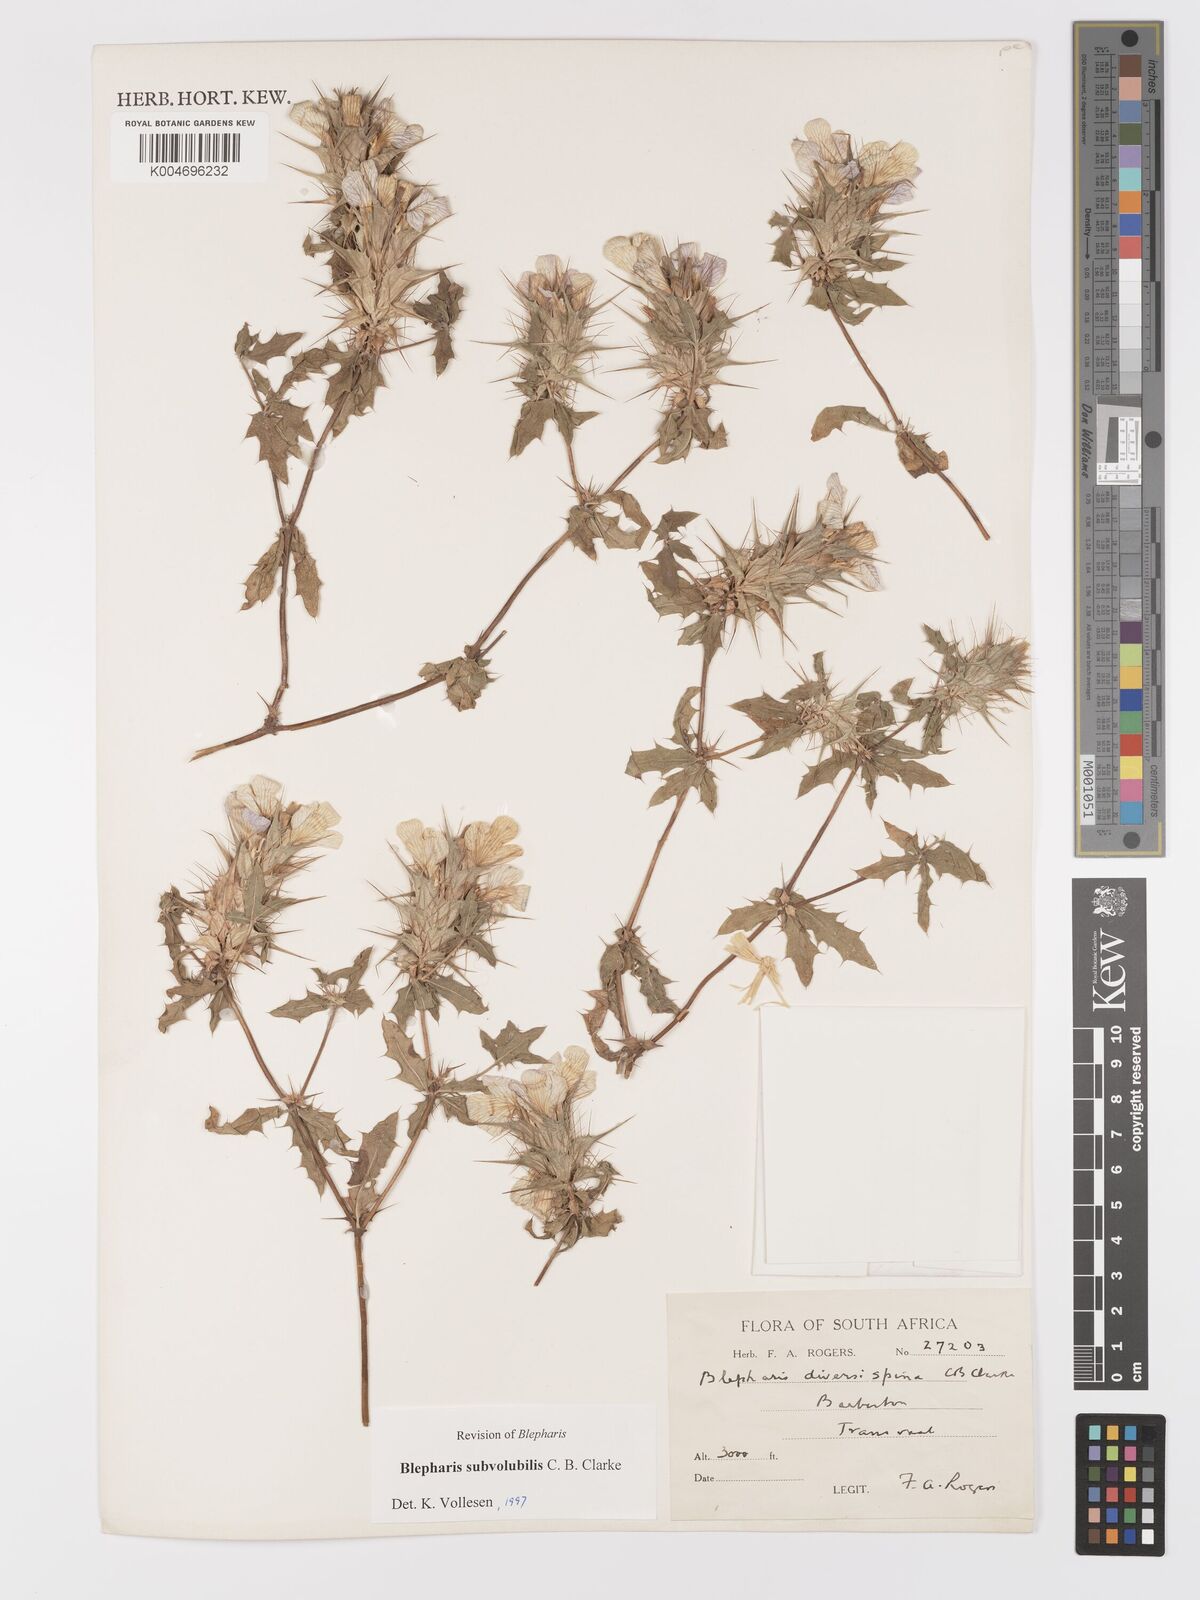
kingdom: Plantae
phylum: Tracheophyta
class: Magnoliopsida
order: Lamiales
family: Acanthaceae
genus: Blepharis
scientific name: Blepharis subvolubilis
